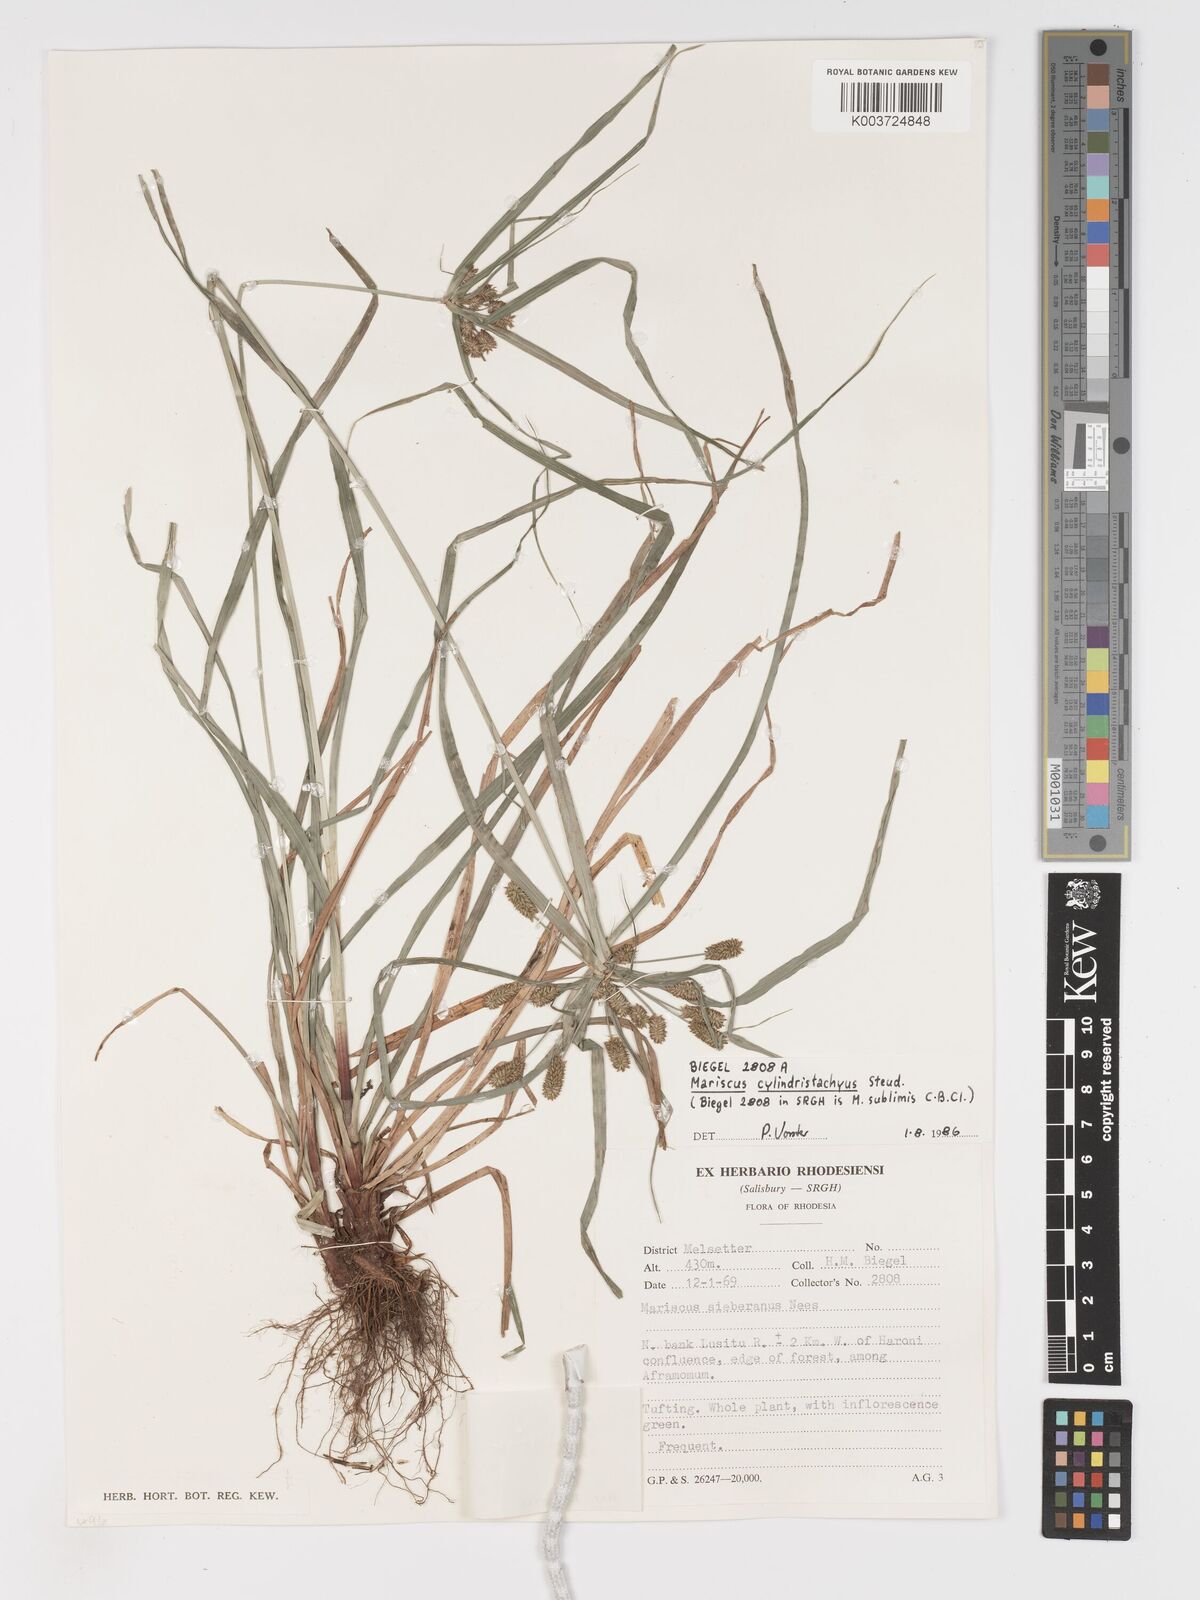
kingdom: Plantae
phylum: Tracheophyta
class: Liliopsida
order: Poales
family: Cyperaceae
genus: Cyperus
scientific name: Cyperus cyperoides
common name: Pacific island flat sedge
